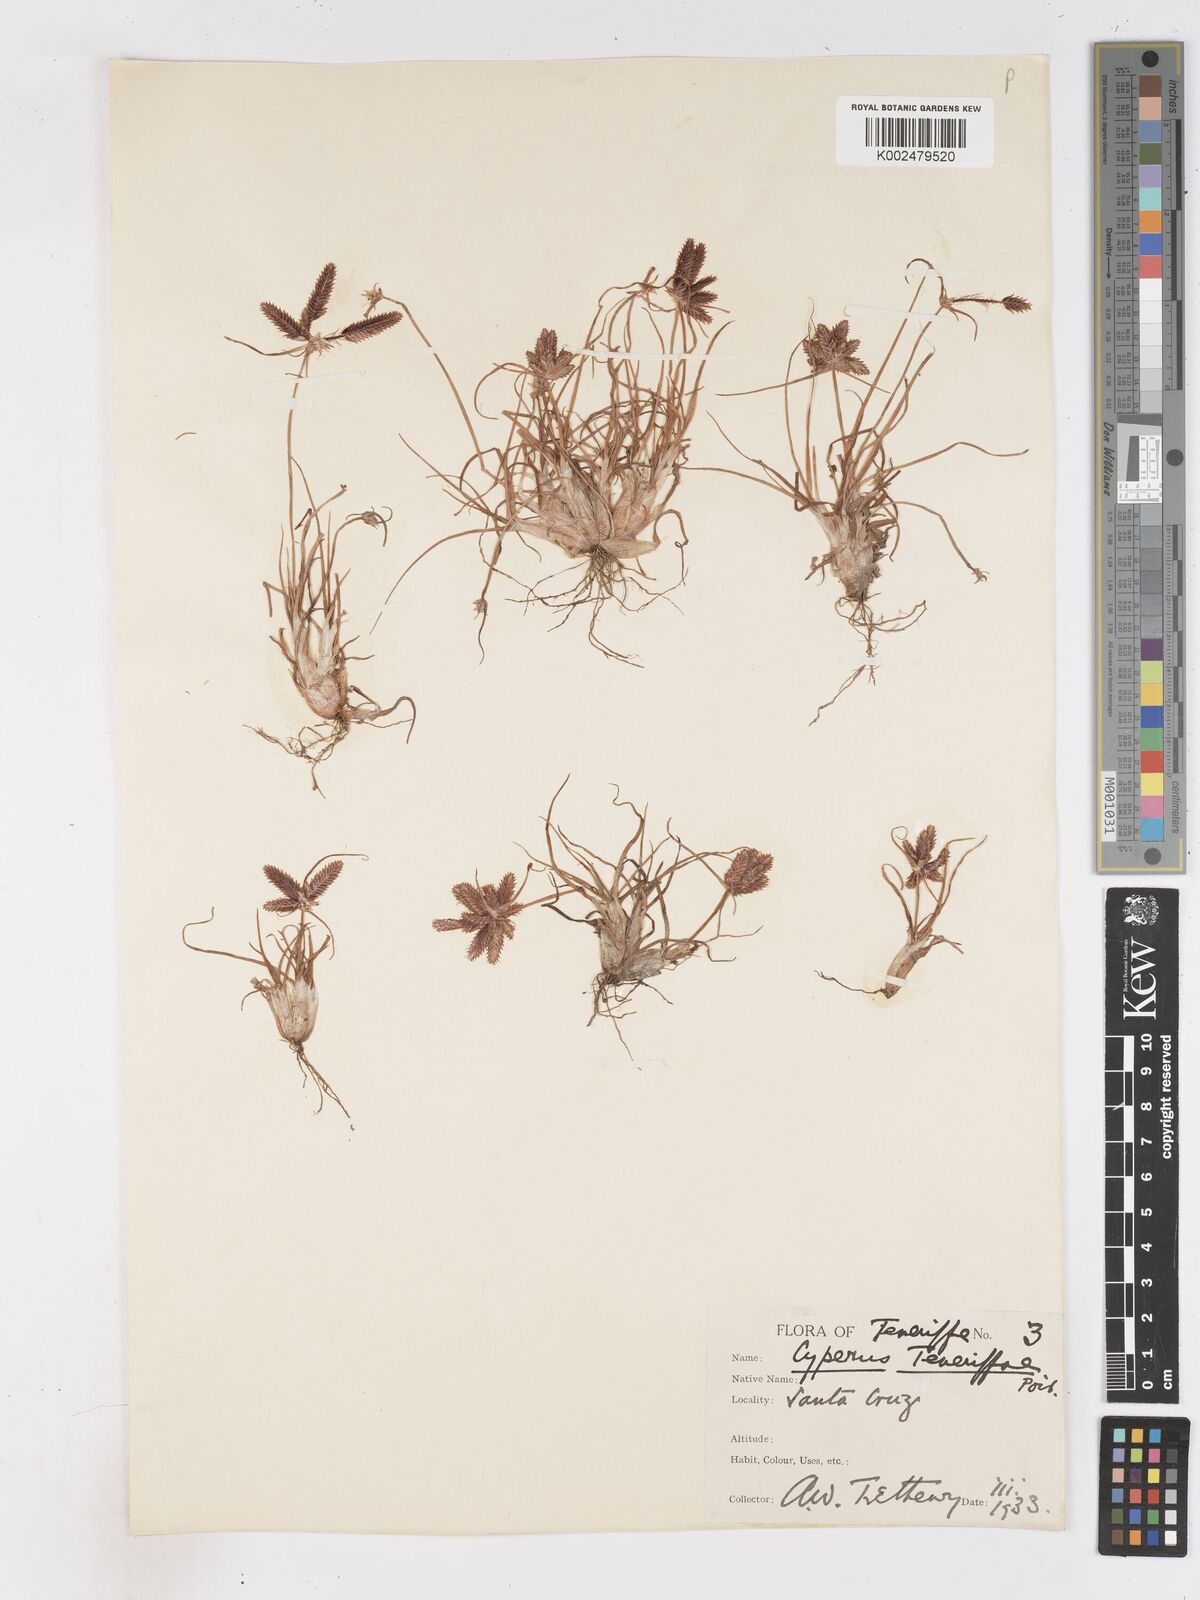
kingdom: Plantae
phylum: Tracheophyta
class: Liliopsida
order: Poales
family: Cyperaceae
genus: Cyperus
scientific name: Cyperus rubicundus
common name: Coco-grass
